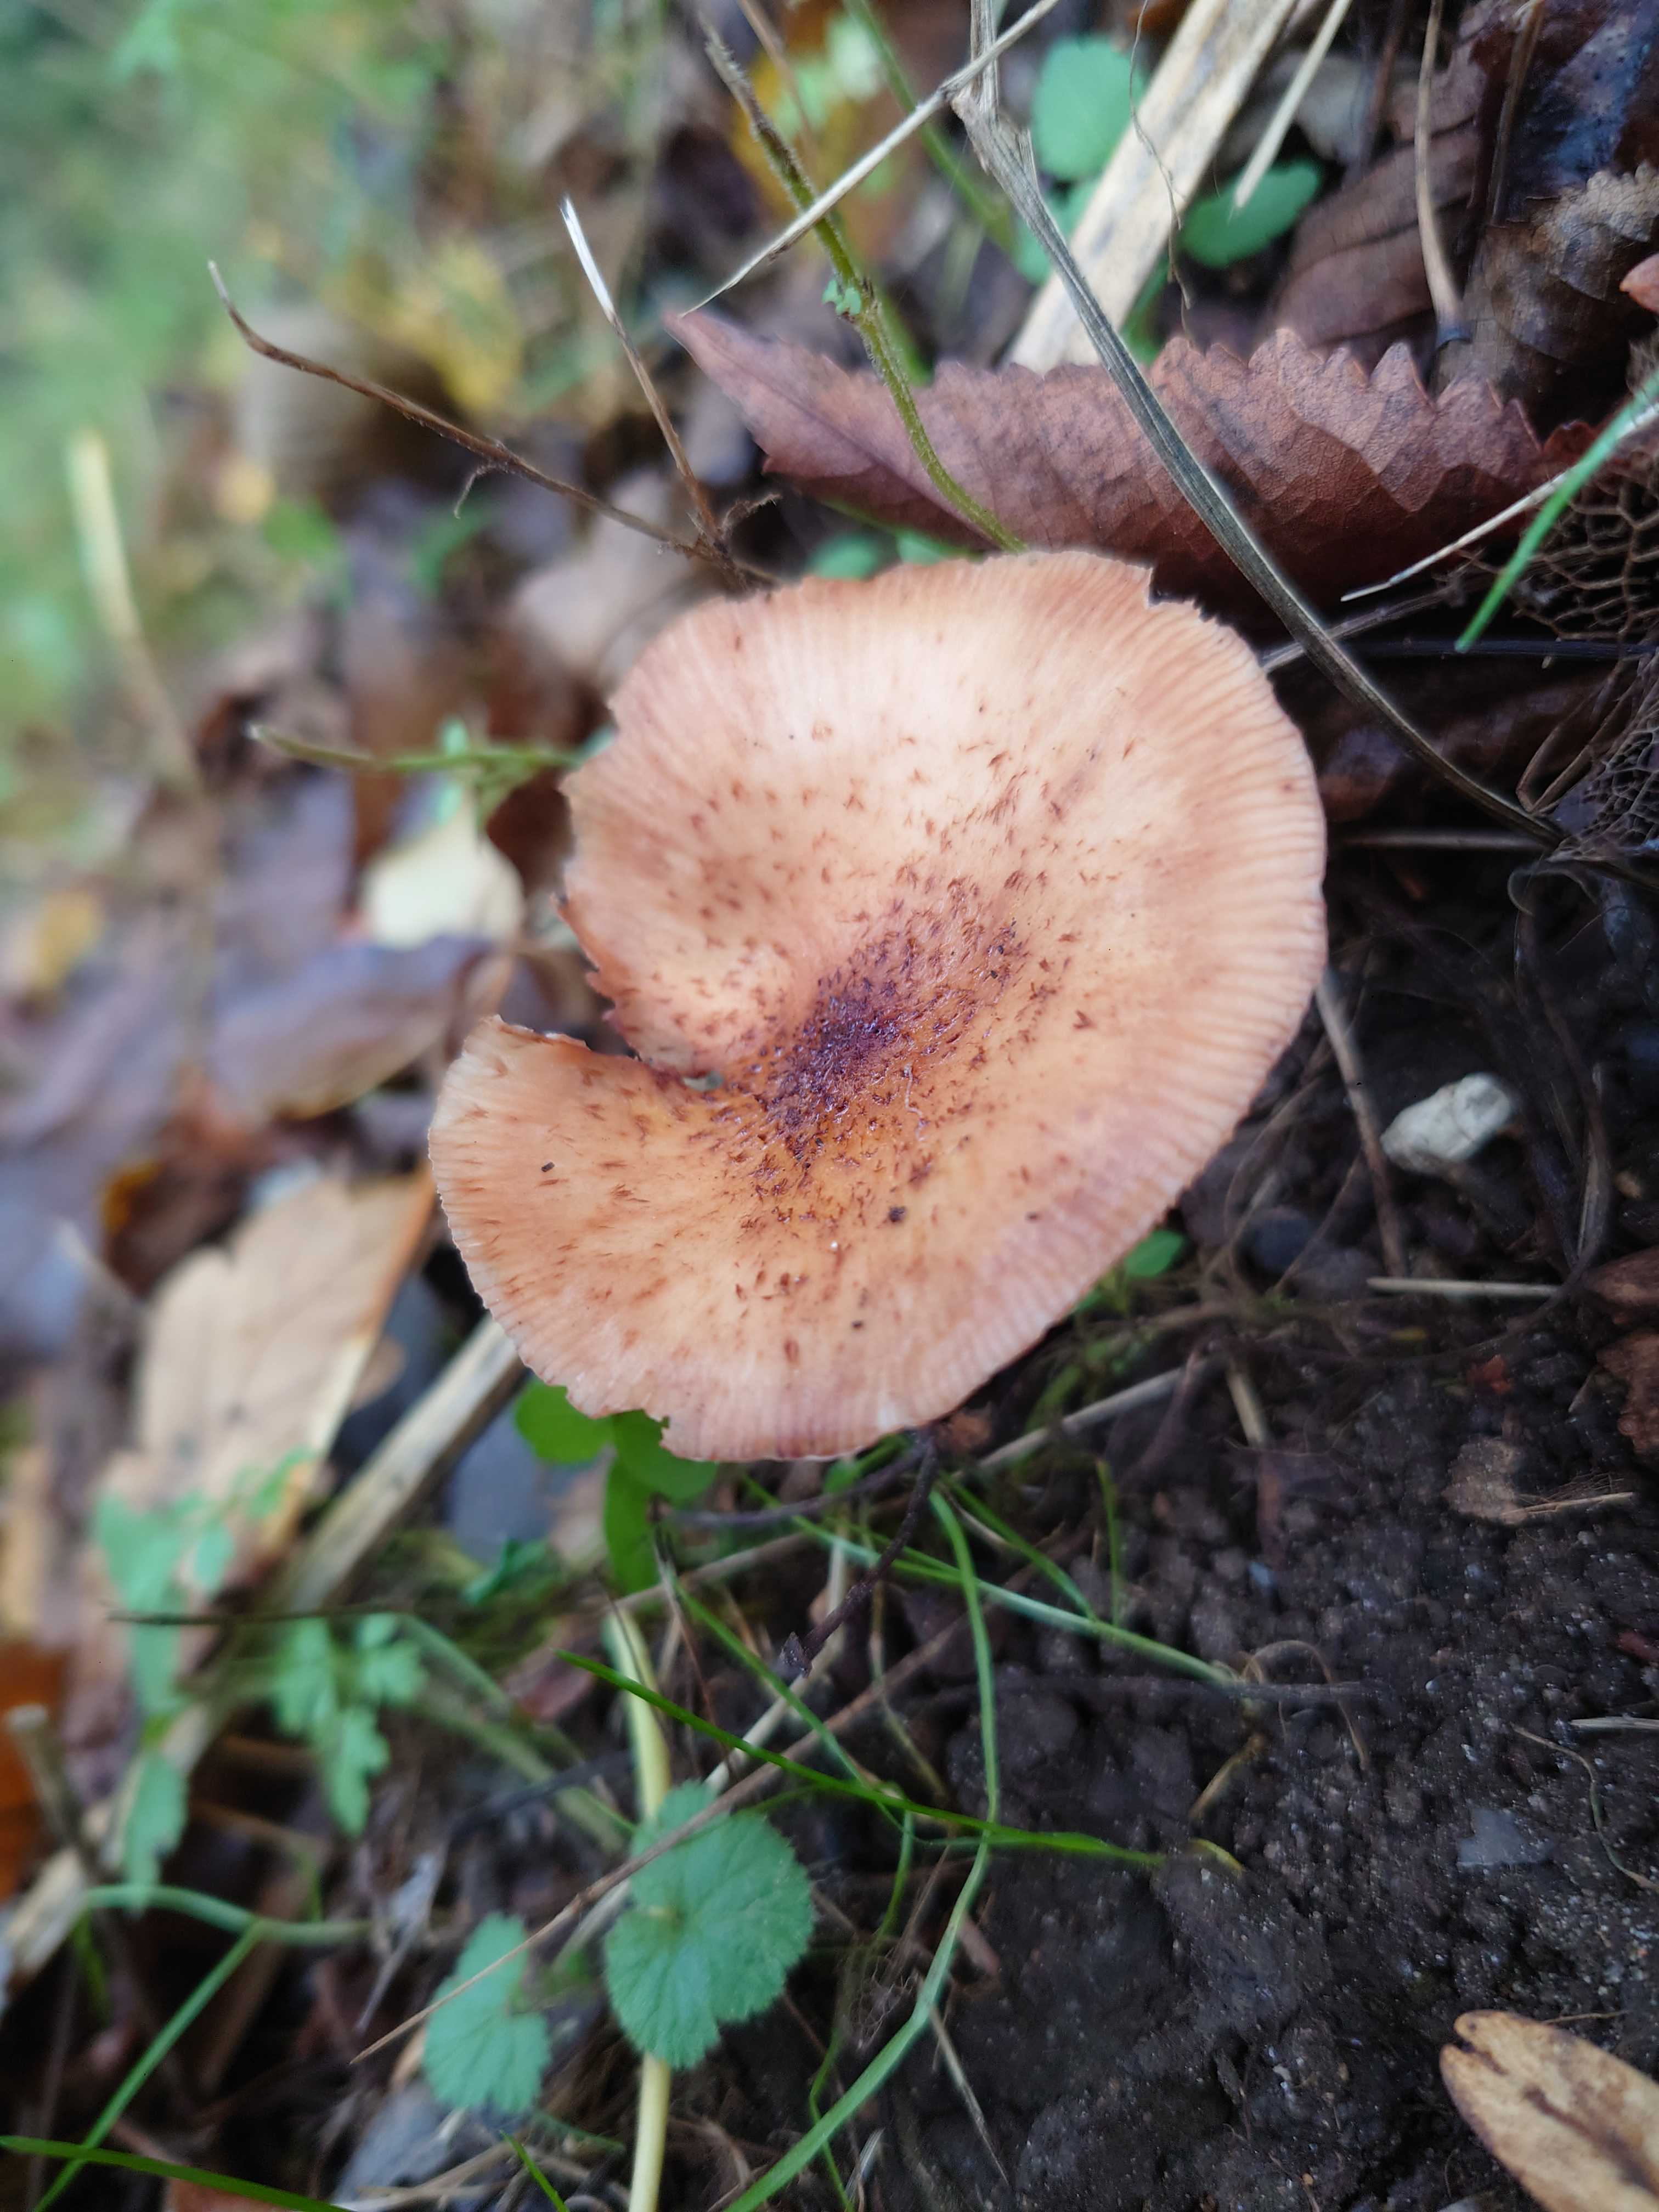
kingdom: Fungi
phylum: Basidiomycota
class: Agaricomycetes
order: Agaricales
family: Physalacriaceae
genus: Armillaria
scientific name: Armillaria
